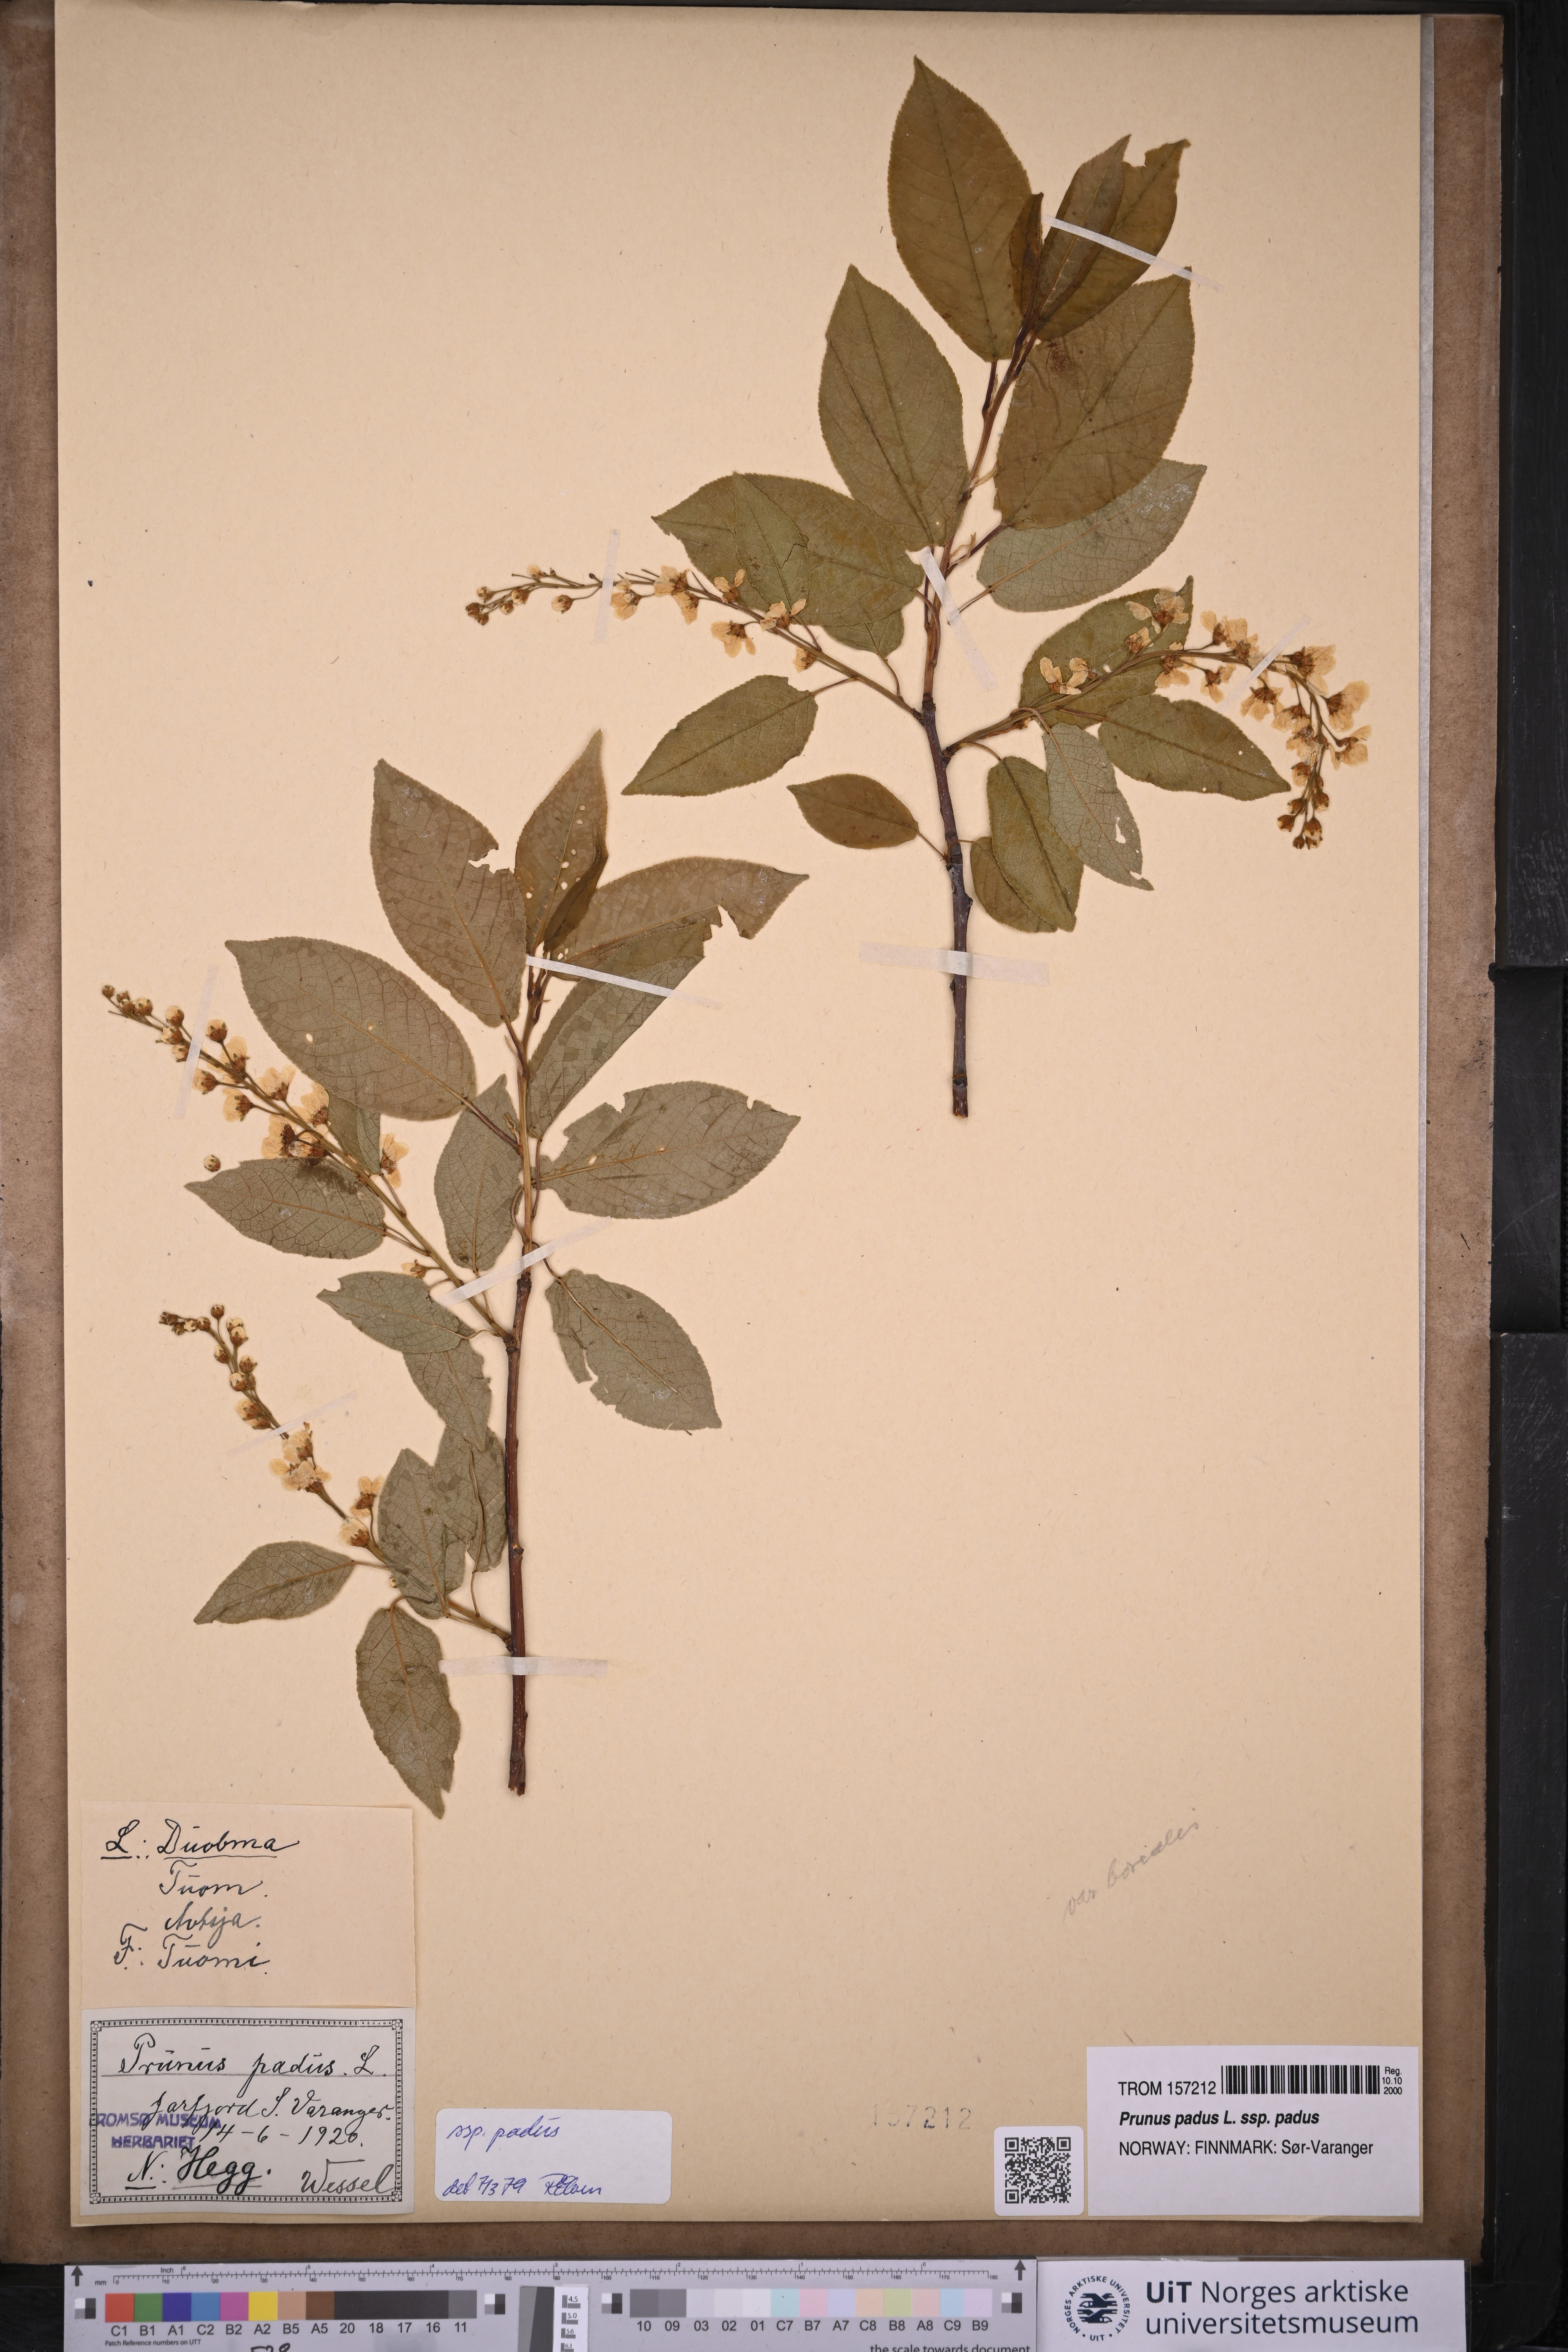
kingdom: Plantae
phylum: Tracheophyta
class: Magnoliopsida
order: Rosales
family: Rosaceae
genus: Prunus
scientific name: Prunus padus
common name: Bird cherry
